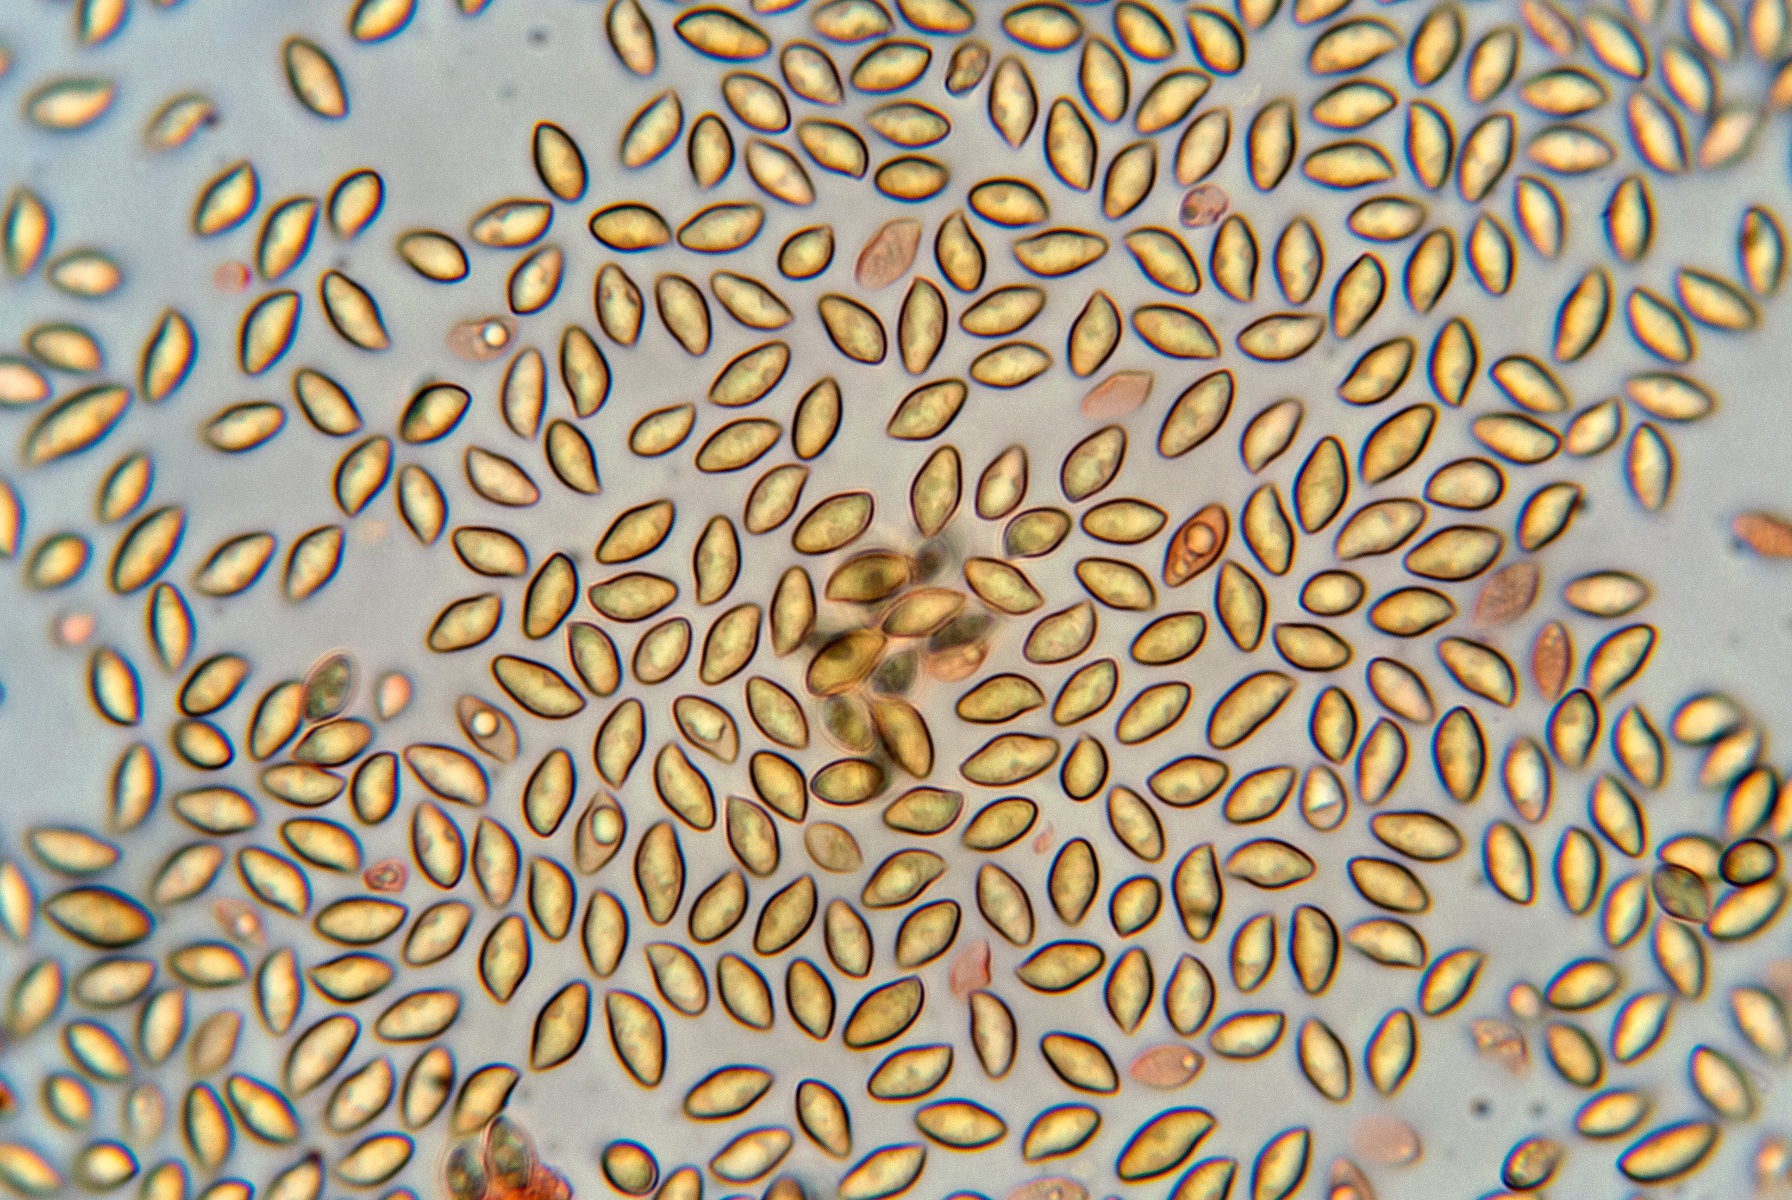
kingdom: Fungi
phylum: Basidiomycota
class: Agaricomycetes
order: Agaricales
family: Tubariaceae
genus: Flammulaster
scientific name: Flammulaster granulosus
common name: gulbrun grynskælhat
